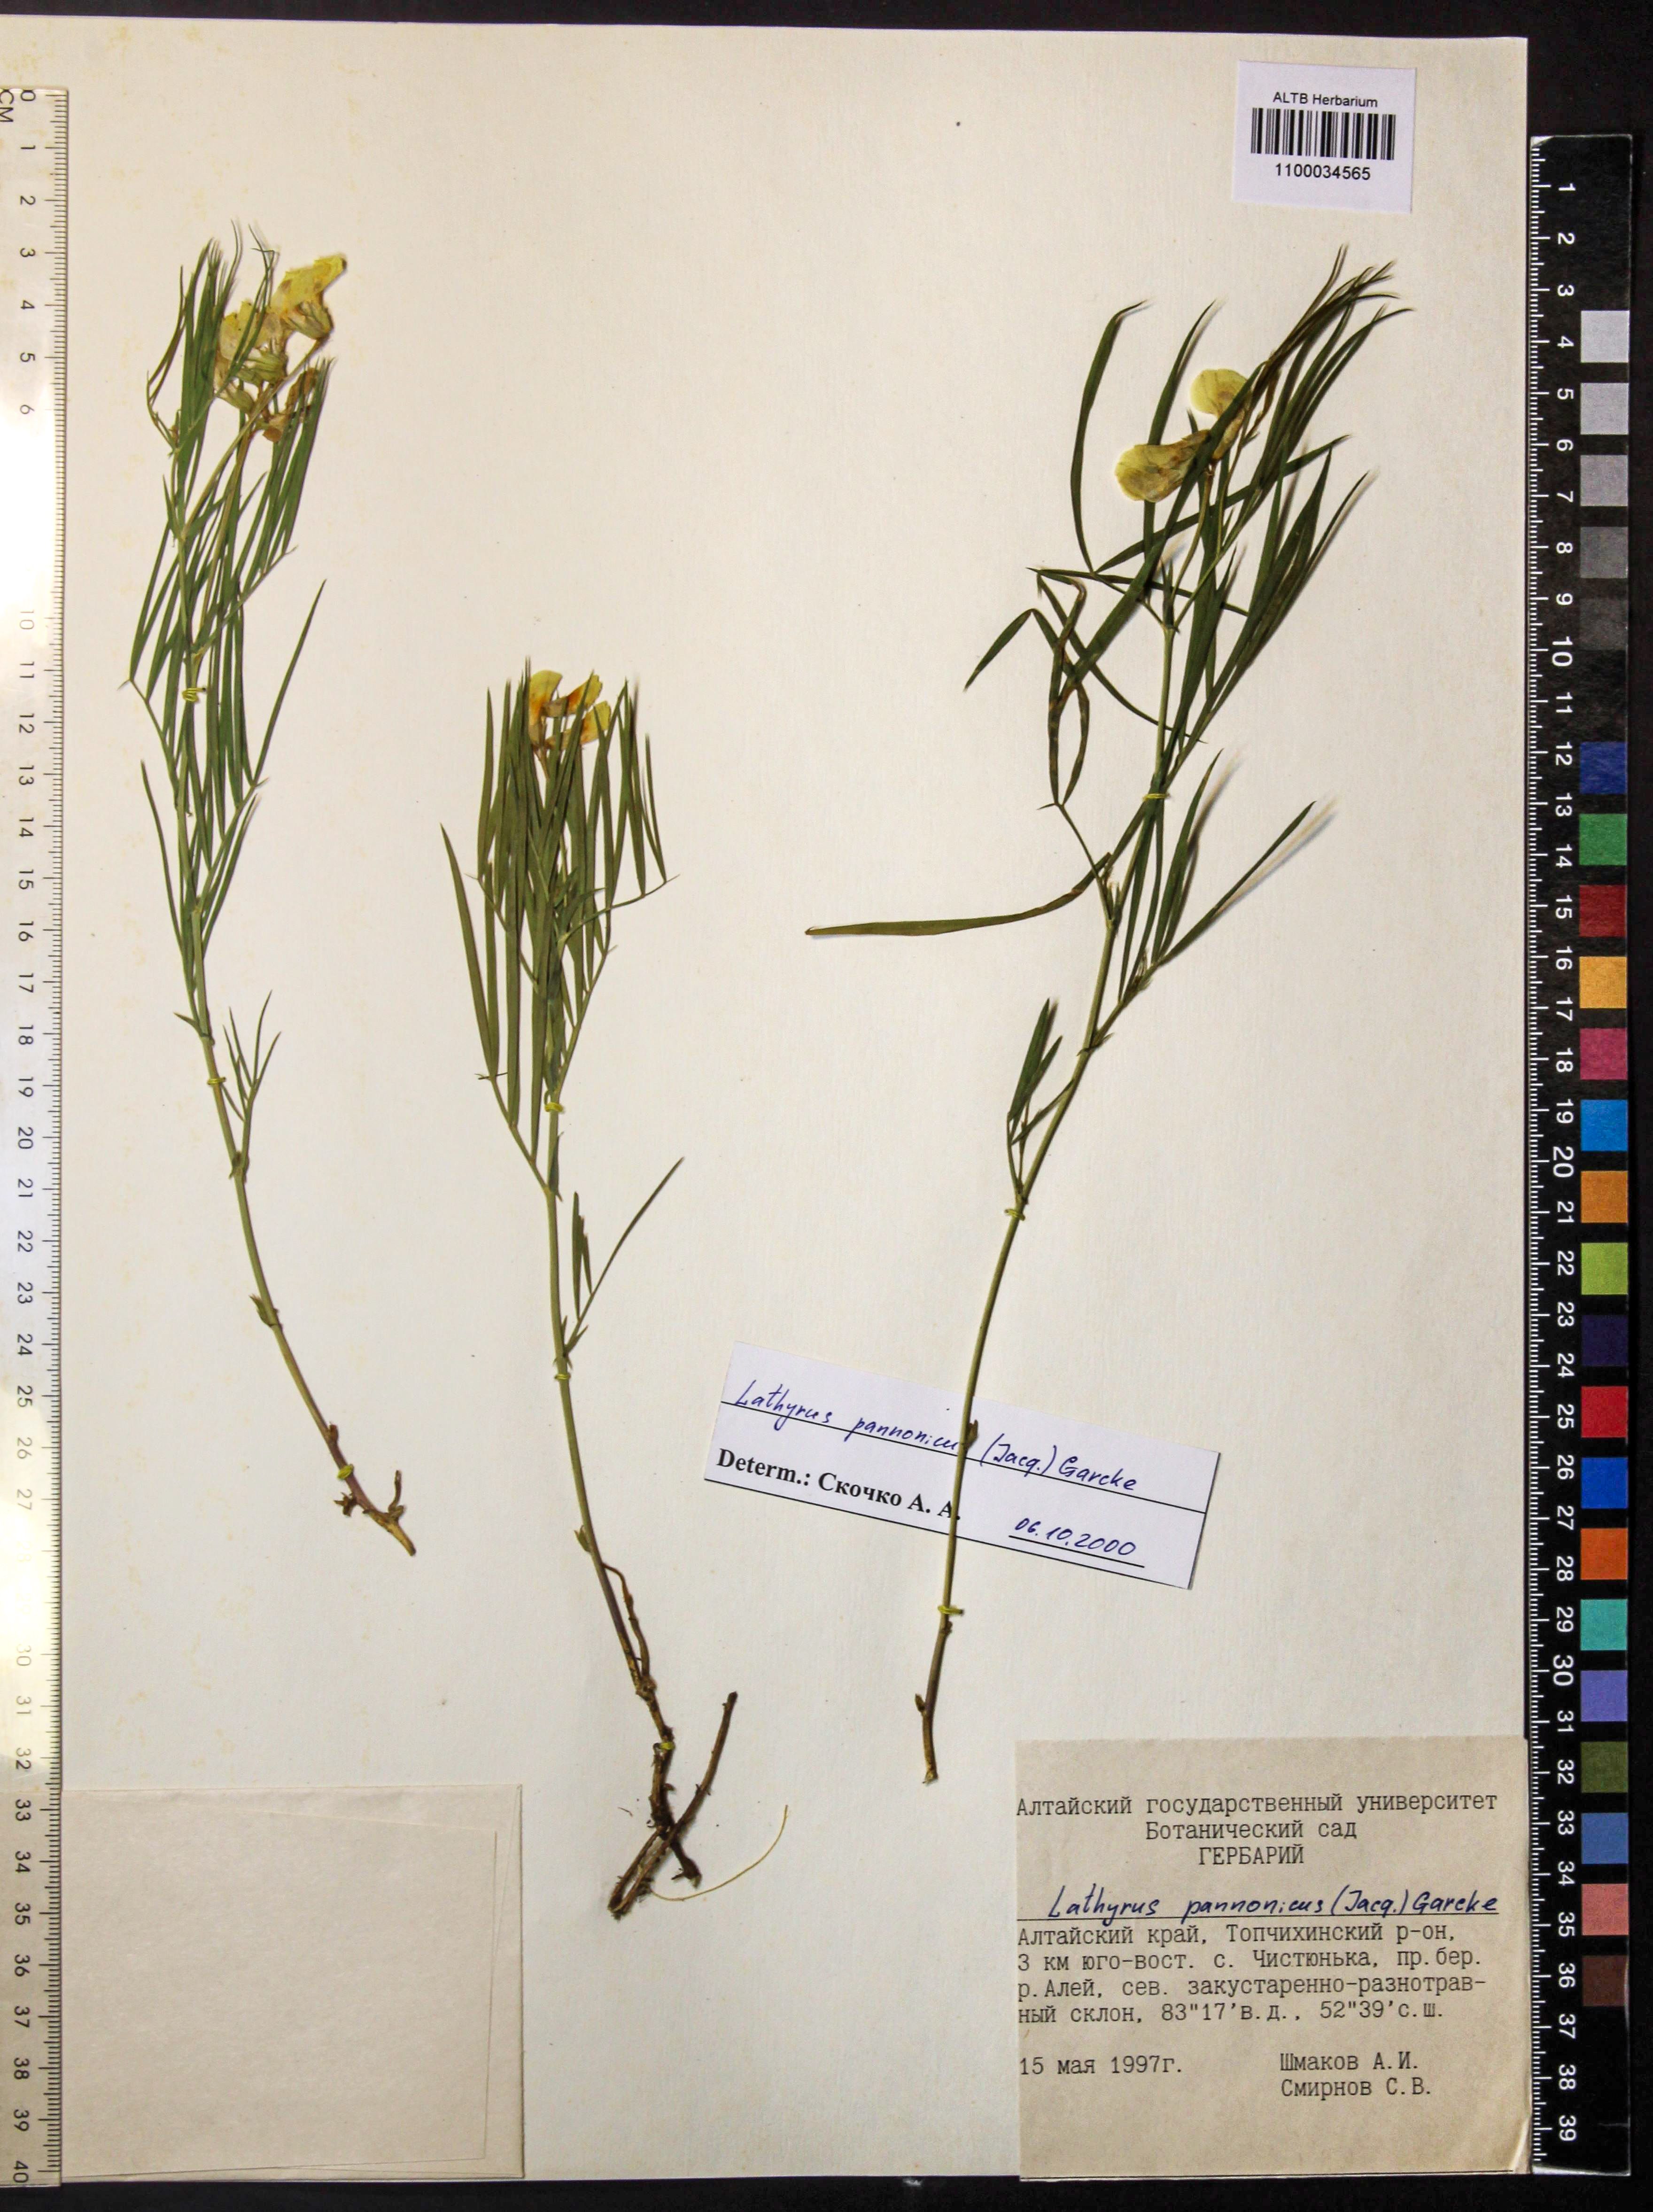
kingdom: Plantae
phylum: Tracheophyta
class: Magnoliopsida
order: Fabales
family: Fabaceae
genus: Lathyrus
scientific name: Lathyrus pannonicus
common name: Pea
